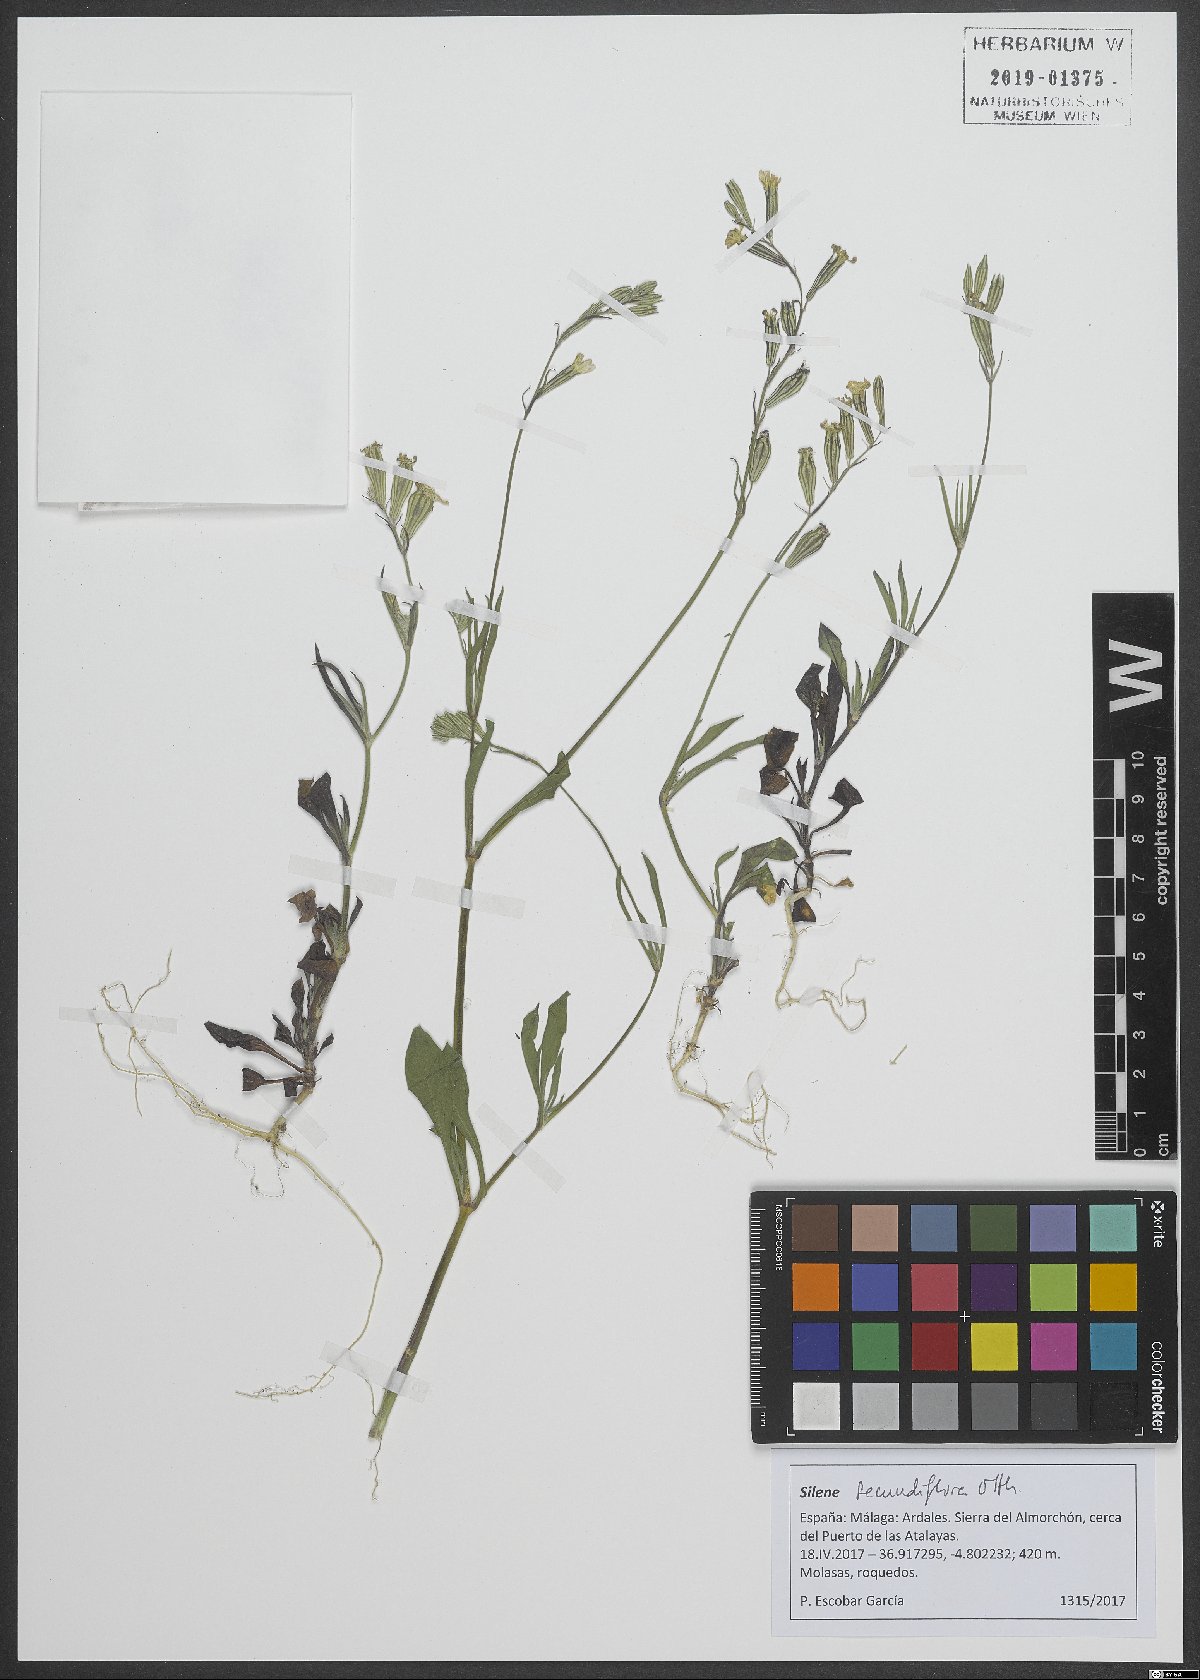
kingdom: Plantae
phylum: Tracheophyta
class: Magnoliopsida
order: Caryophyllales
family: Caryophyllaceae
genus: Silene
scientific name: Silene secundiflora
